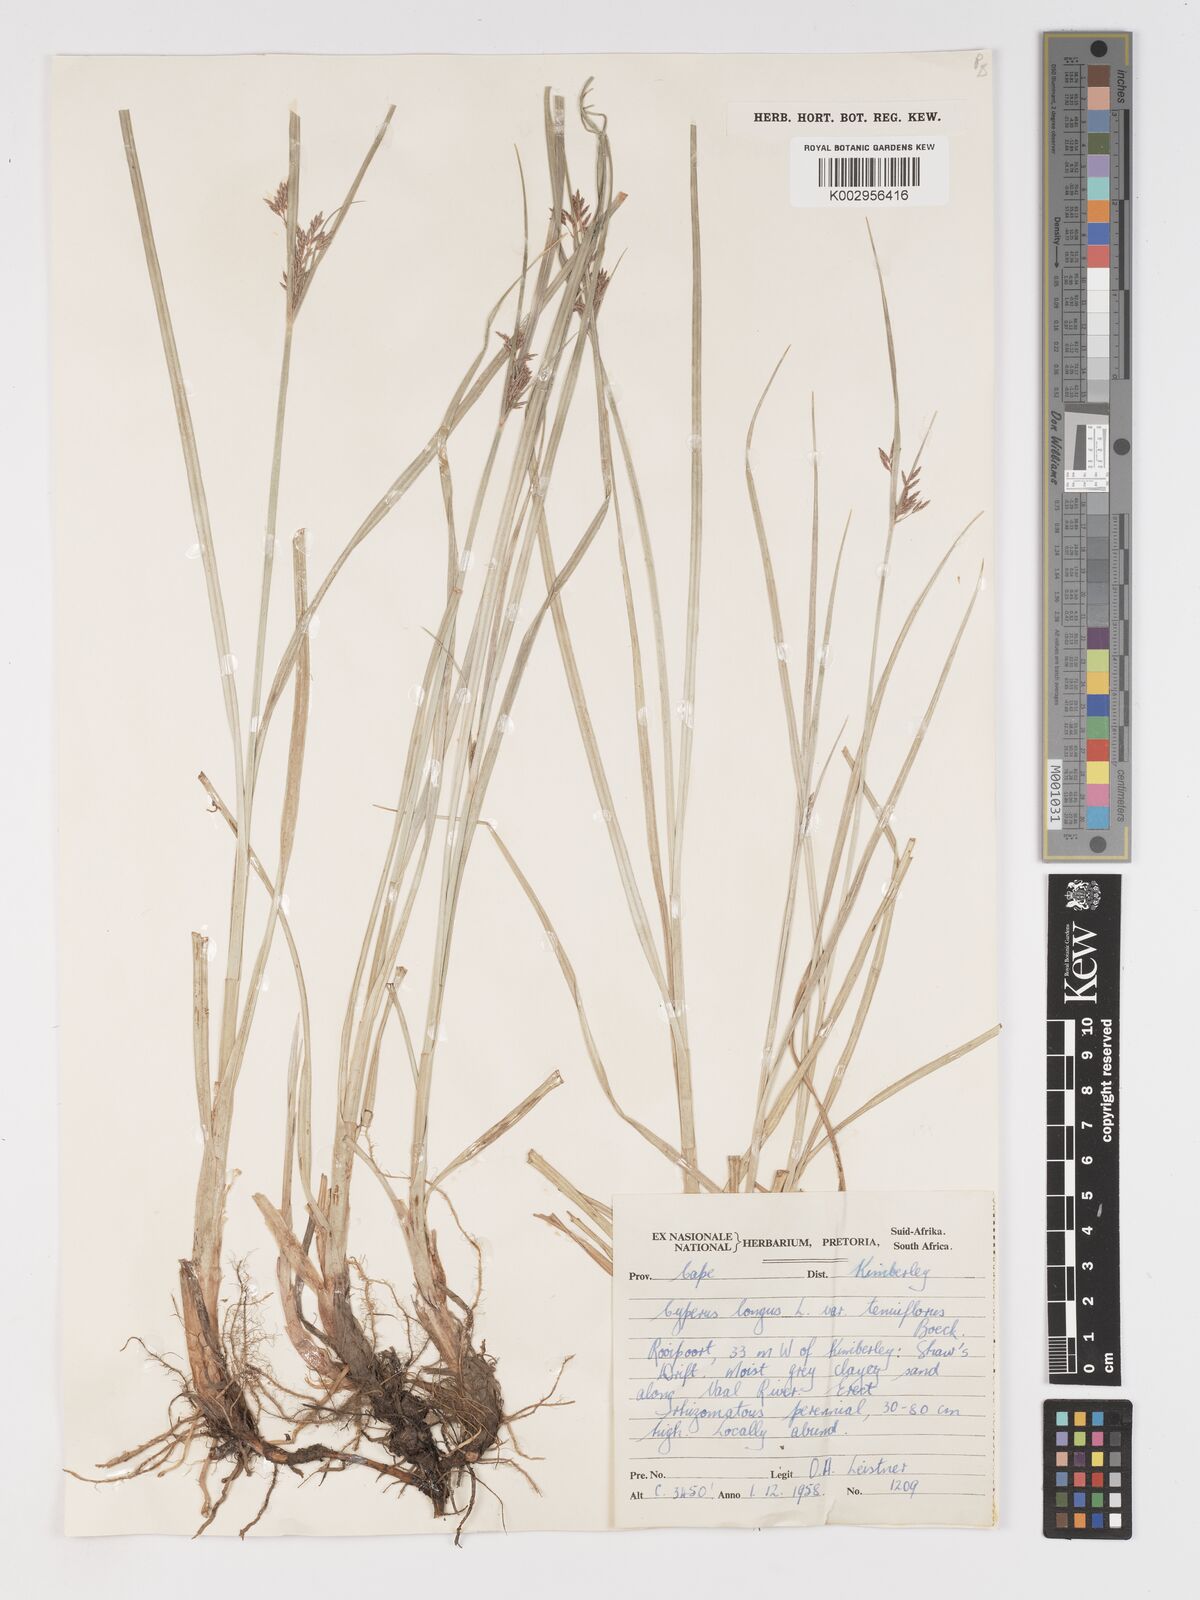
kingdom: Plantae
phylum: Tracheophyta
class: Liliopsida
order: Poales
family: Cyperaceae
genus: Cyperus
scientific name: Cyperus longus
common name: Galingale
